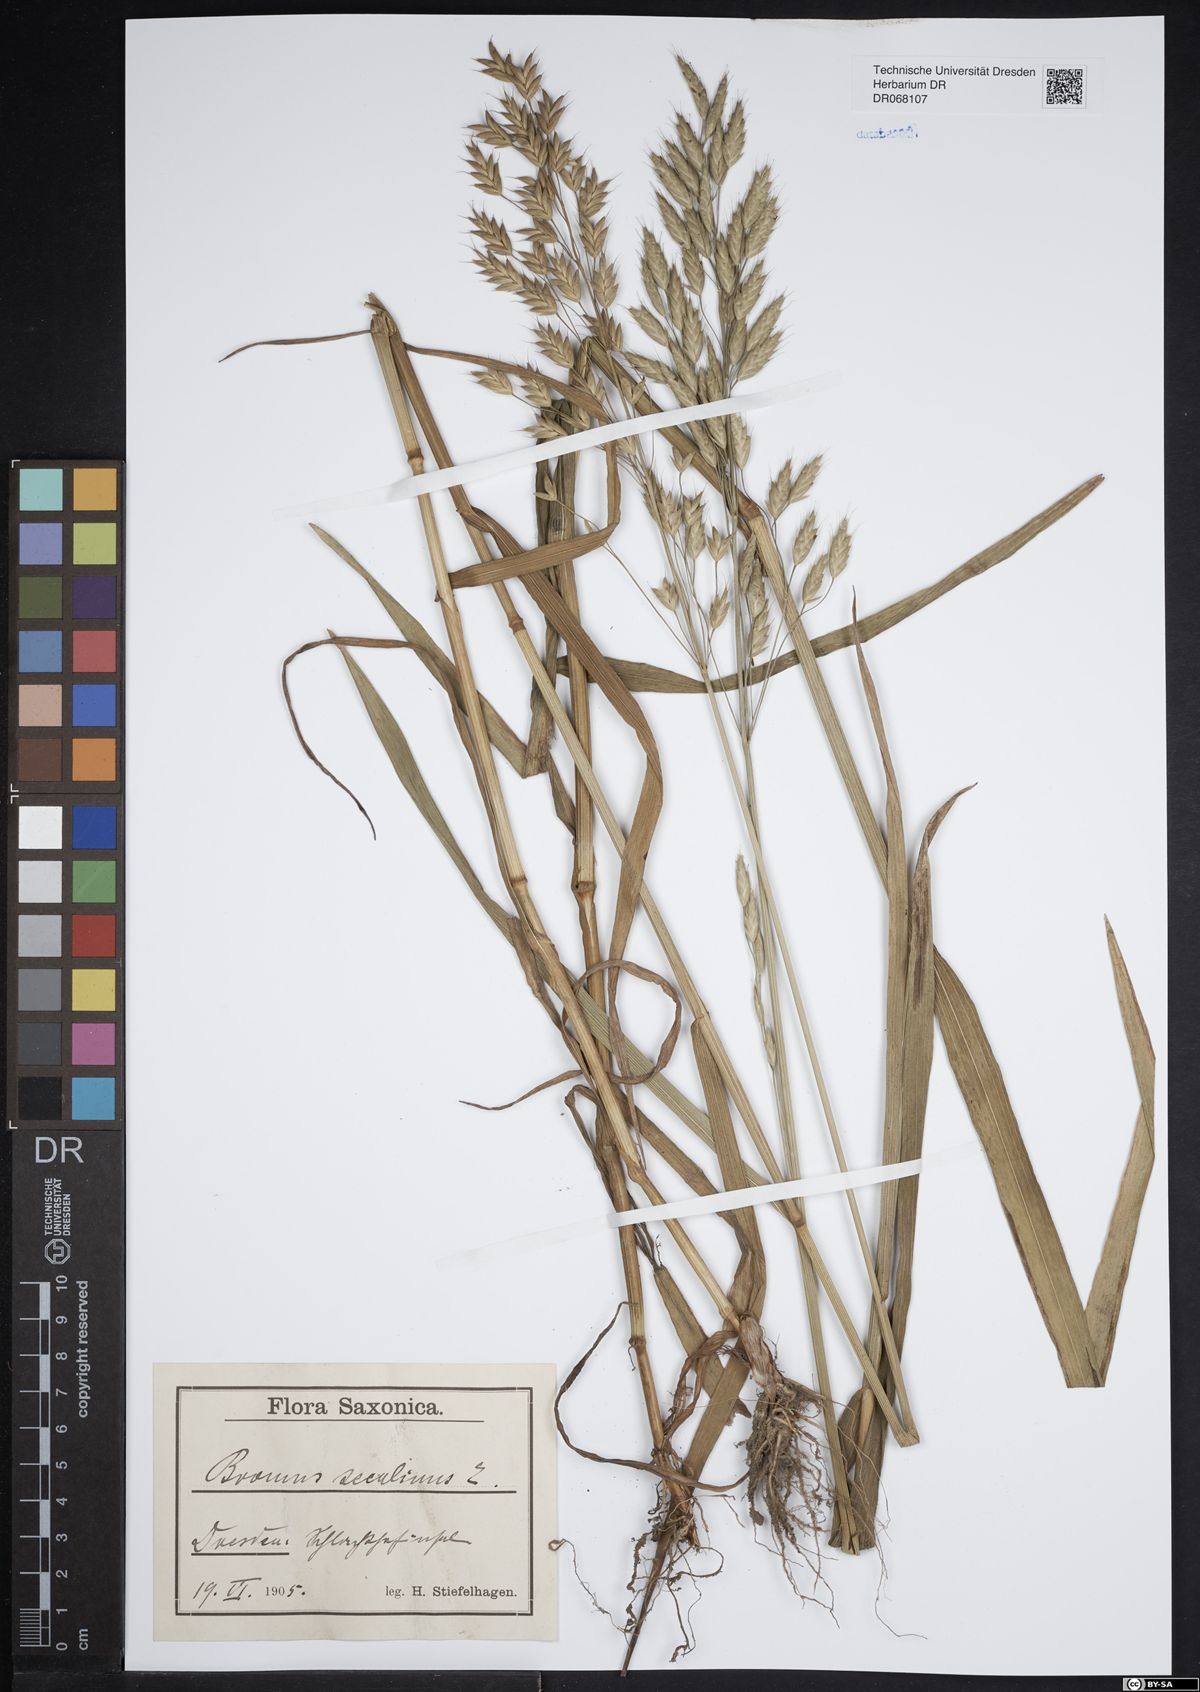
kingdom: Plantae
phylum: Tracheophyta
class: Liliopsida
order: Poales
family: Poaceae
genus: Bromus
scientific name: Bromus secalinus
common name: Rye brome
